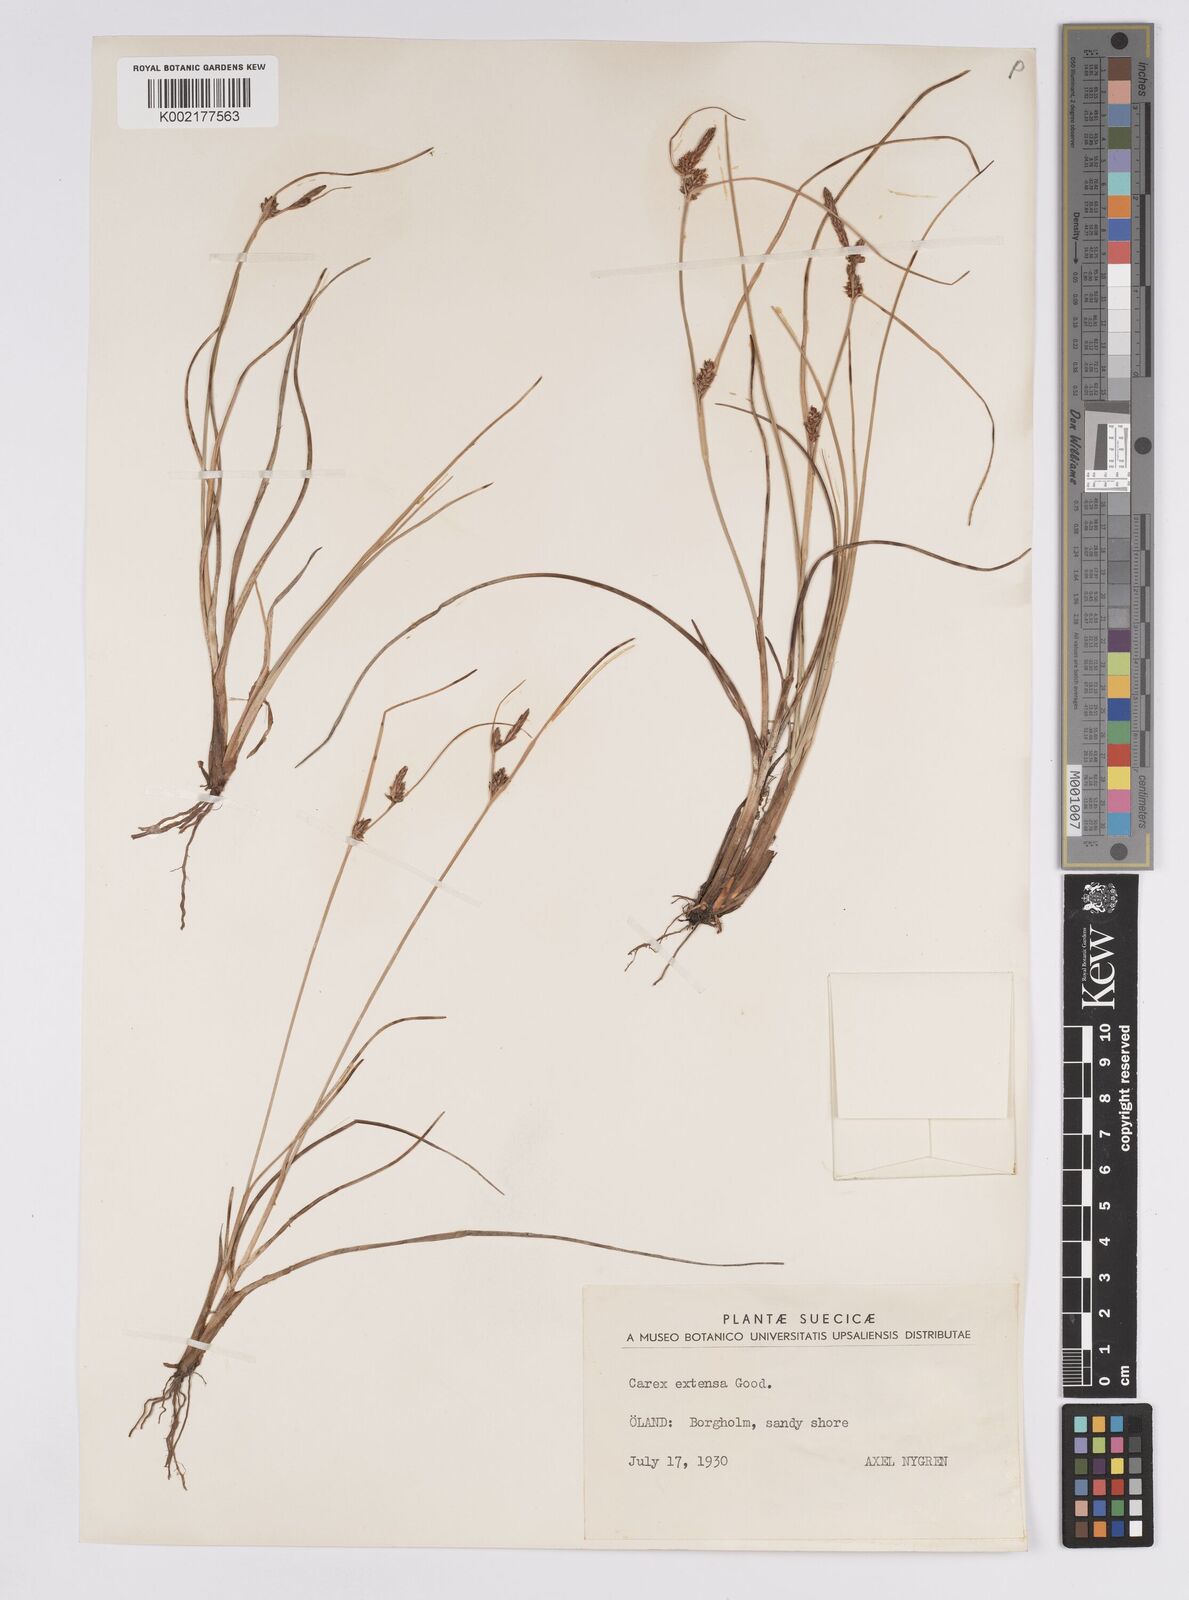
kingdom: Plantae
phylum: Tracheophyta
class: Liliopsida
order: Poales
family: Cyperaceae
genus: Carex
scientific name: Carex extensa
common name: Long-bracted sedge
